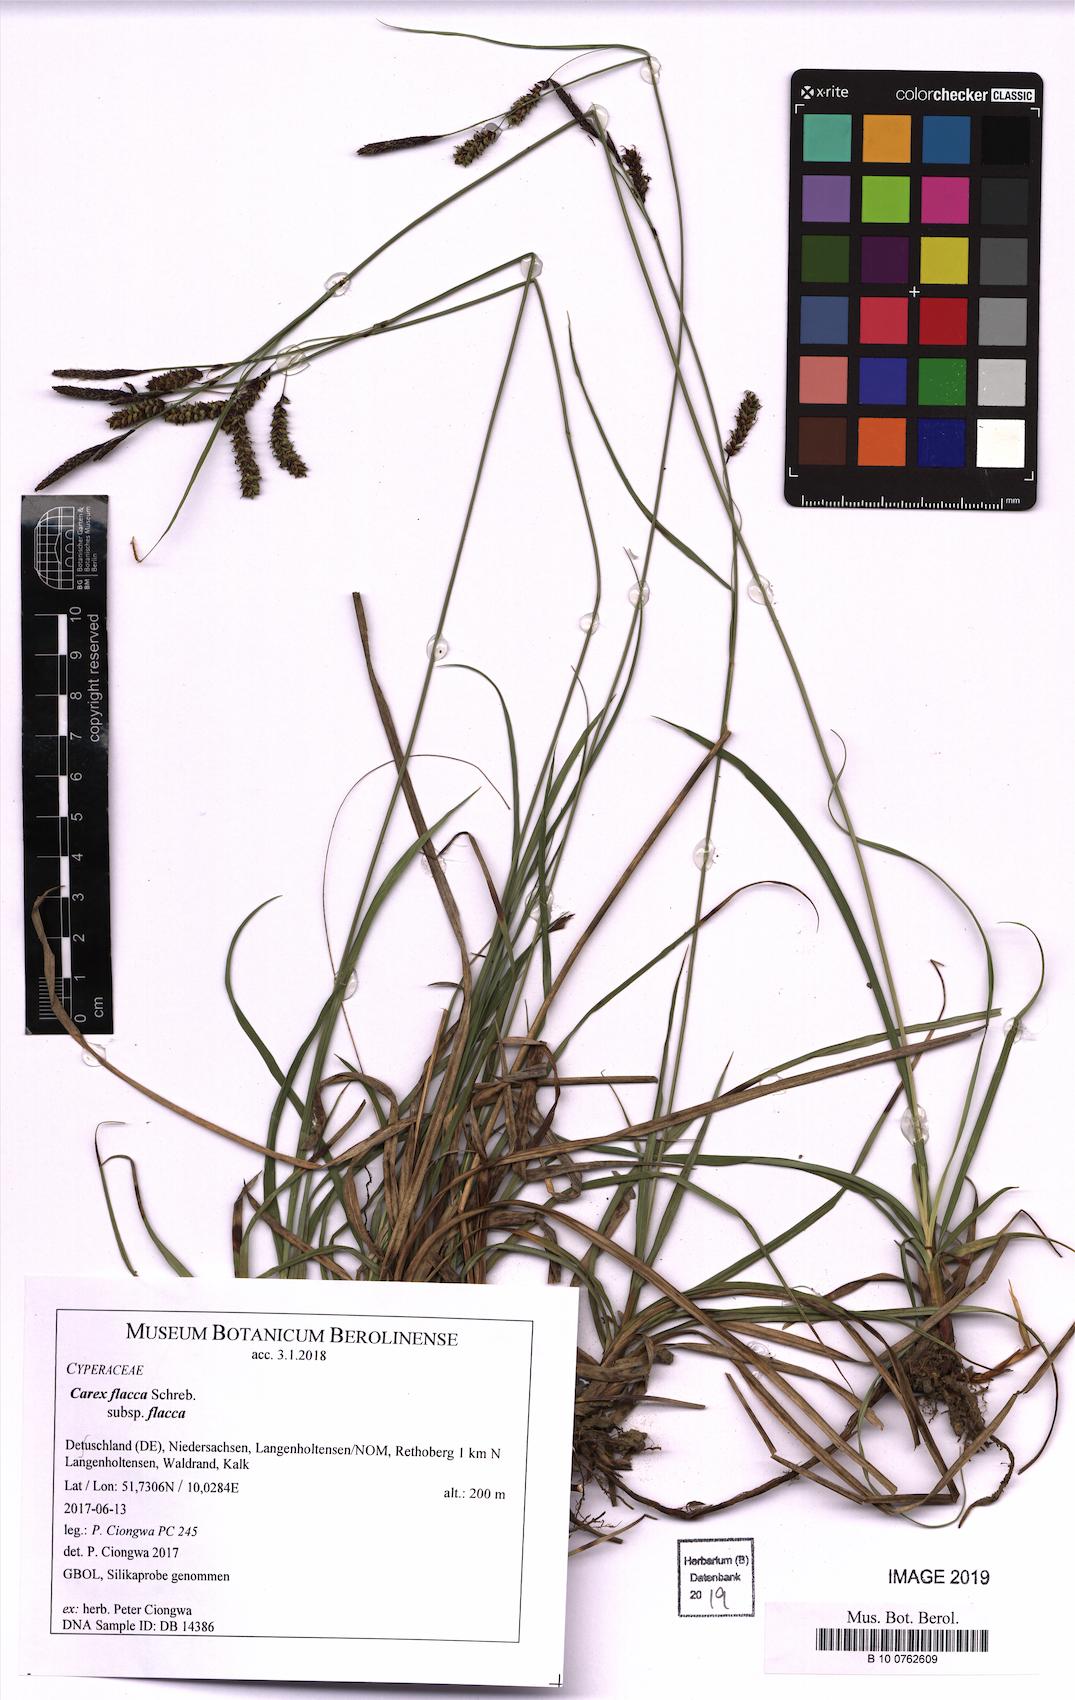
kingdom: Plantae
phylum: Tracheophyta
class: Liliopsida
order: Poales
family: Cyperaceae
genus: Carex
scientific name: Carex flacca
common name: Glaucous sedge
